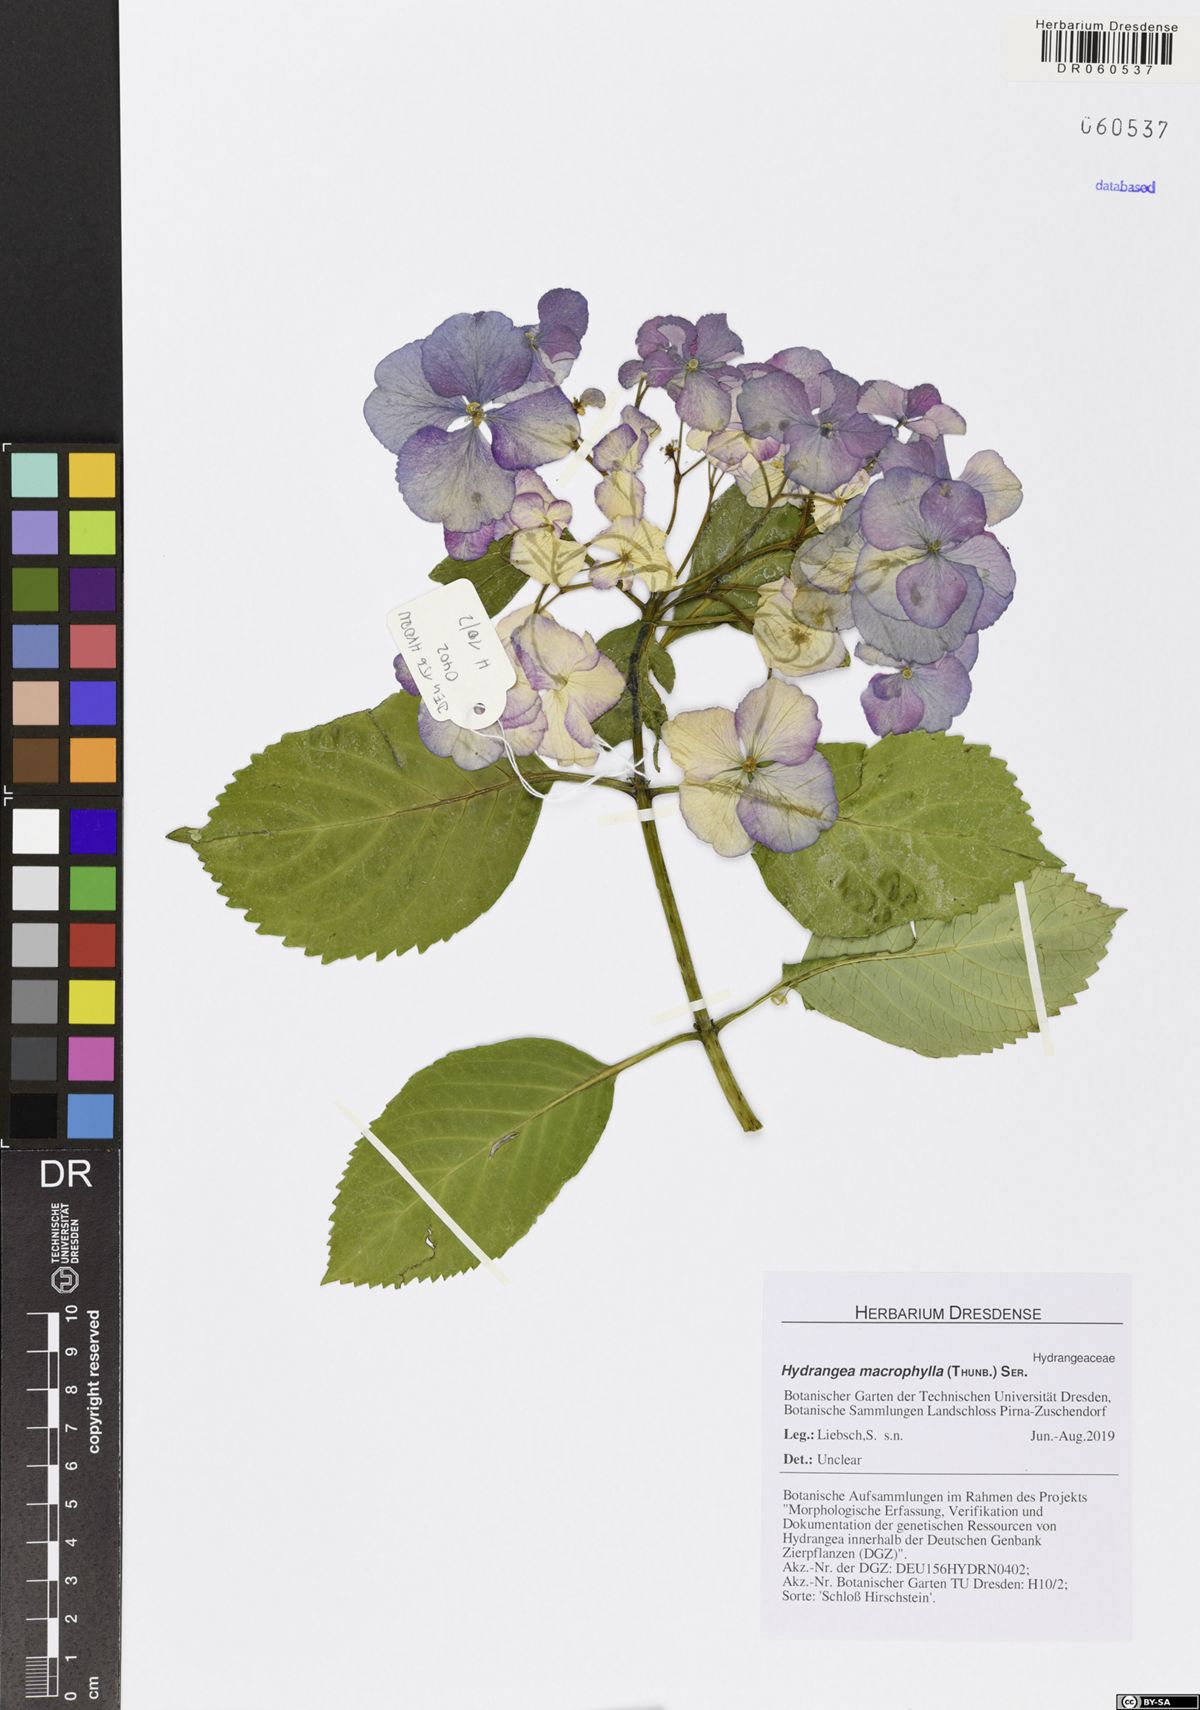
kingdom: Plantae
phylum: Tracheophyta
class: Magnoliopsida
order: Cornales
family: Hydrangeaceae
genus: Hydrangea
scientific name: Hydrangea macrophylla
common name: Hydrangea
